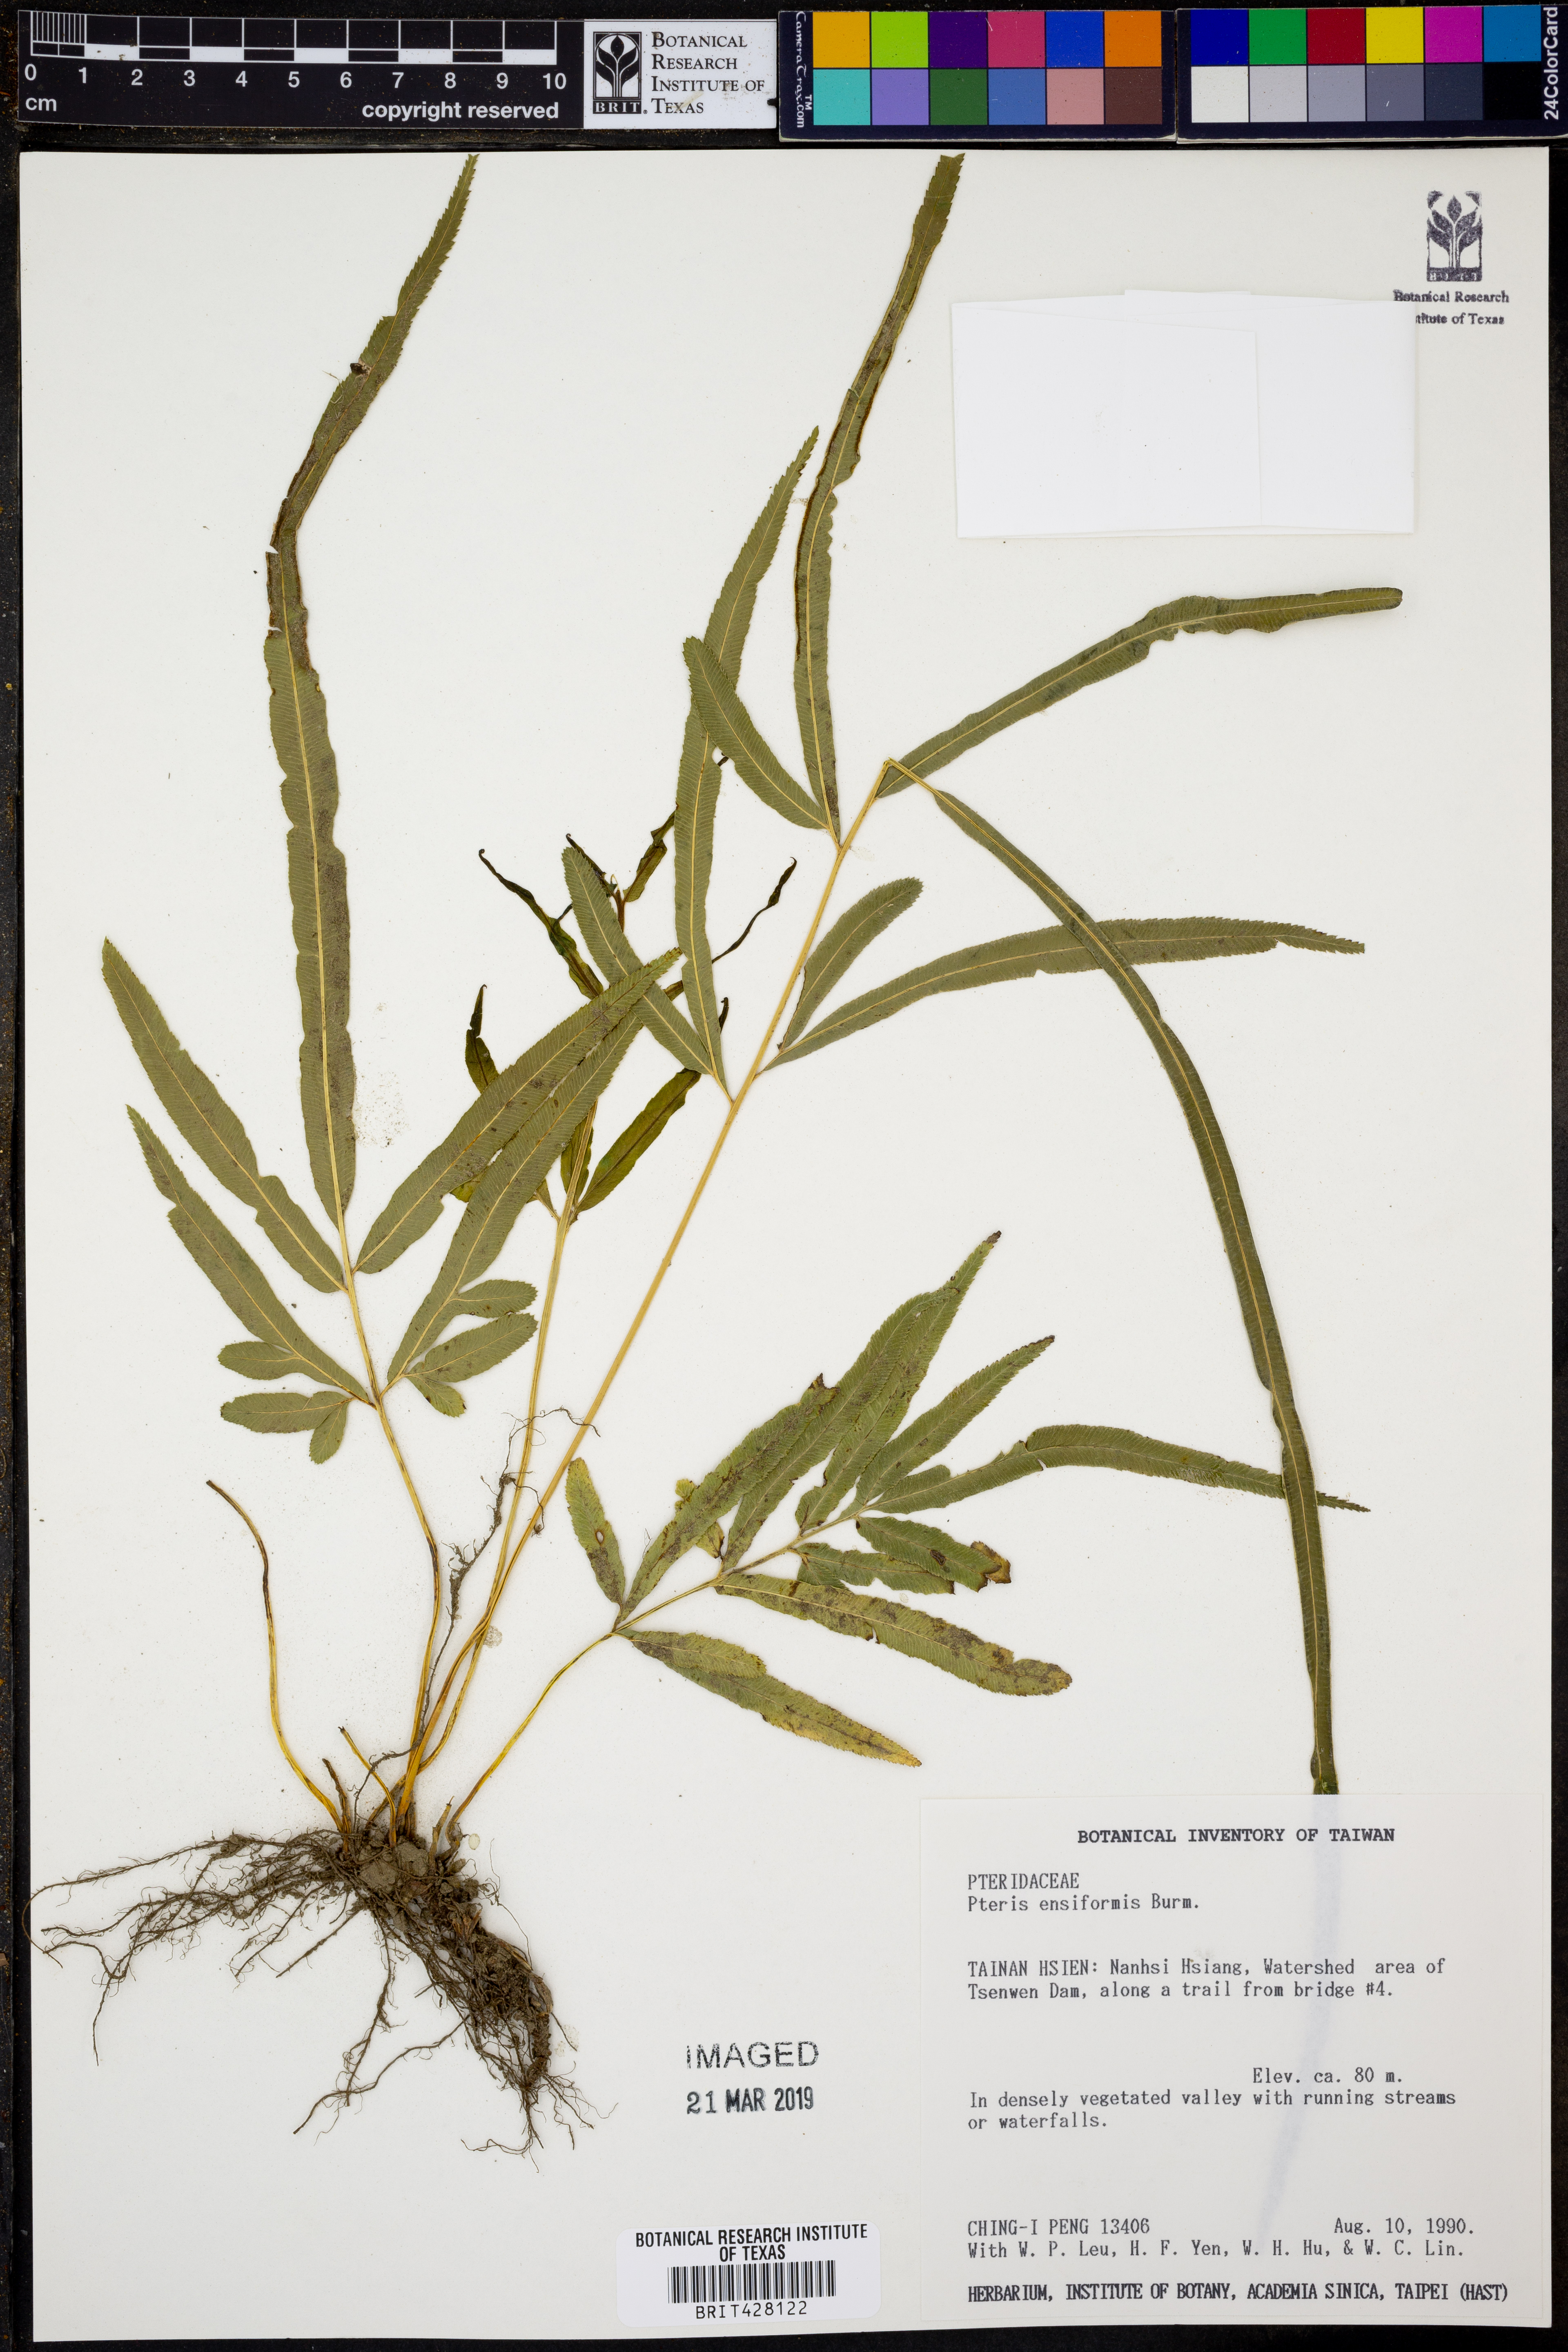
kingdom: Plantae
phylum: Tracheophyta
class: Polypodiopsida
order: Polypodiales
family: Pteridaceae
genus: Pteris
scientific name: Pteris ensiformis
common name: Sword brake
